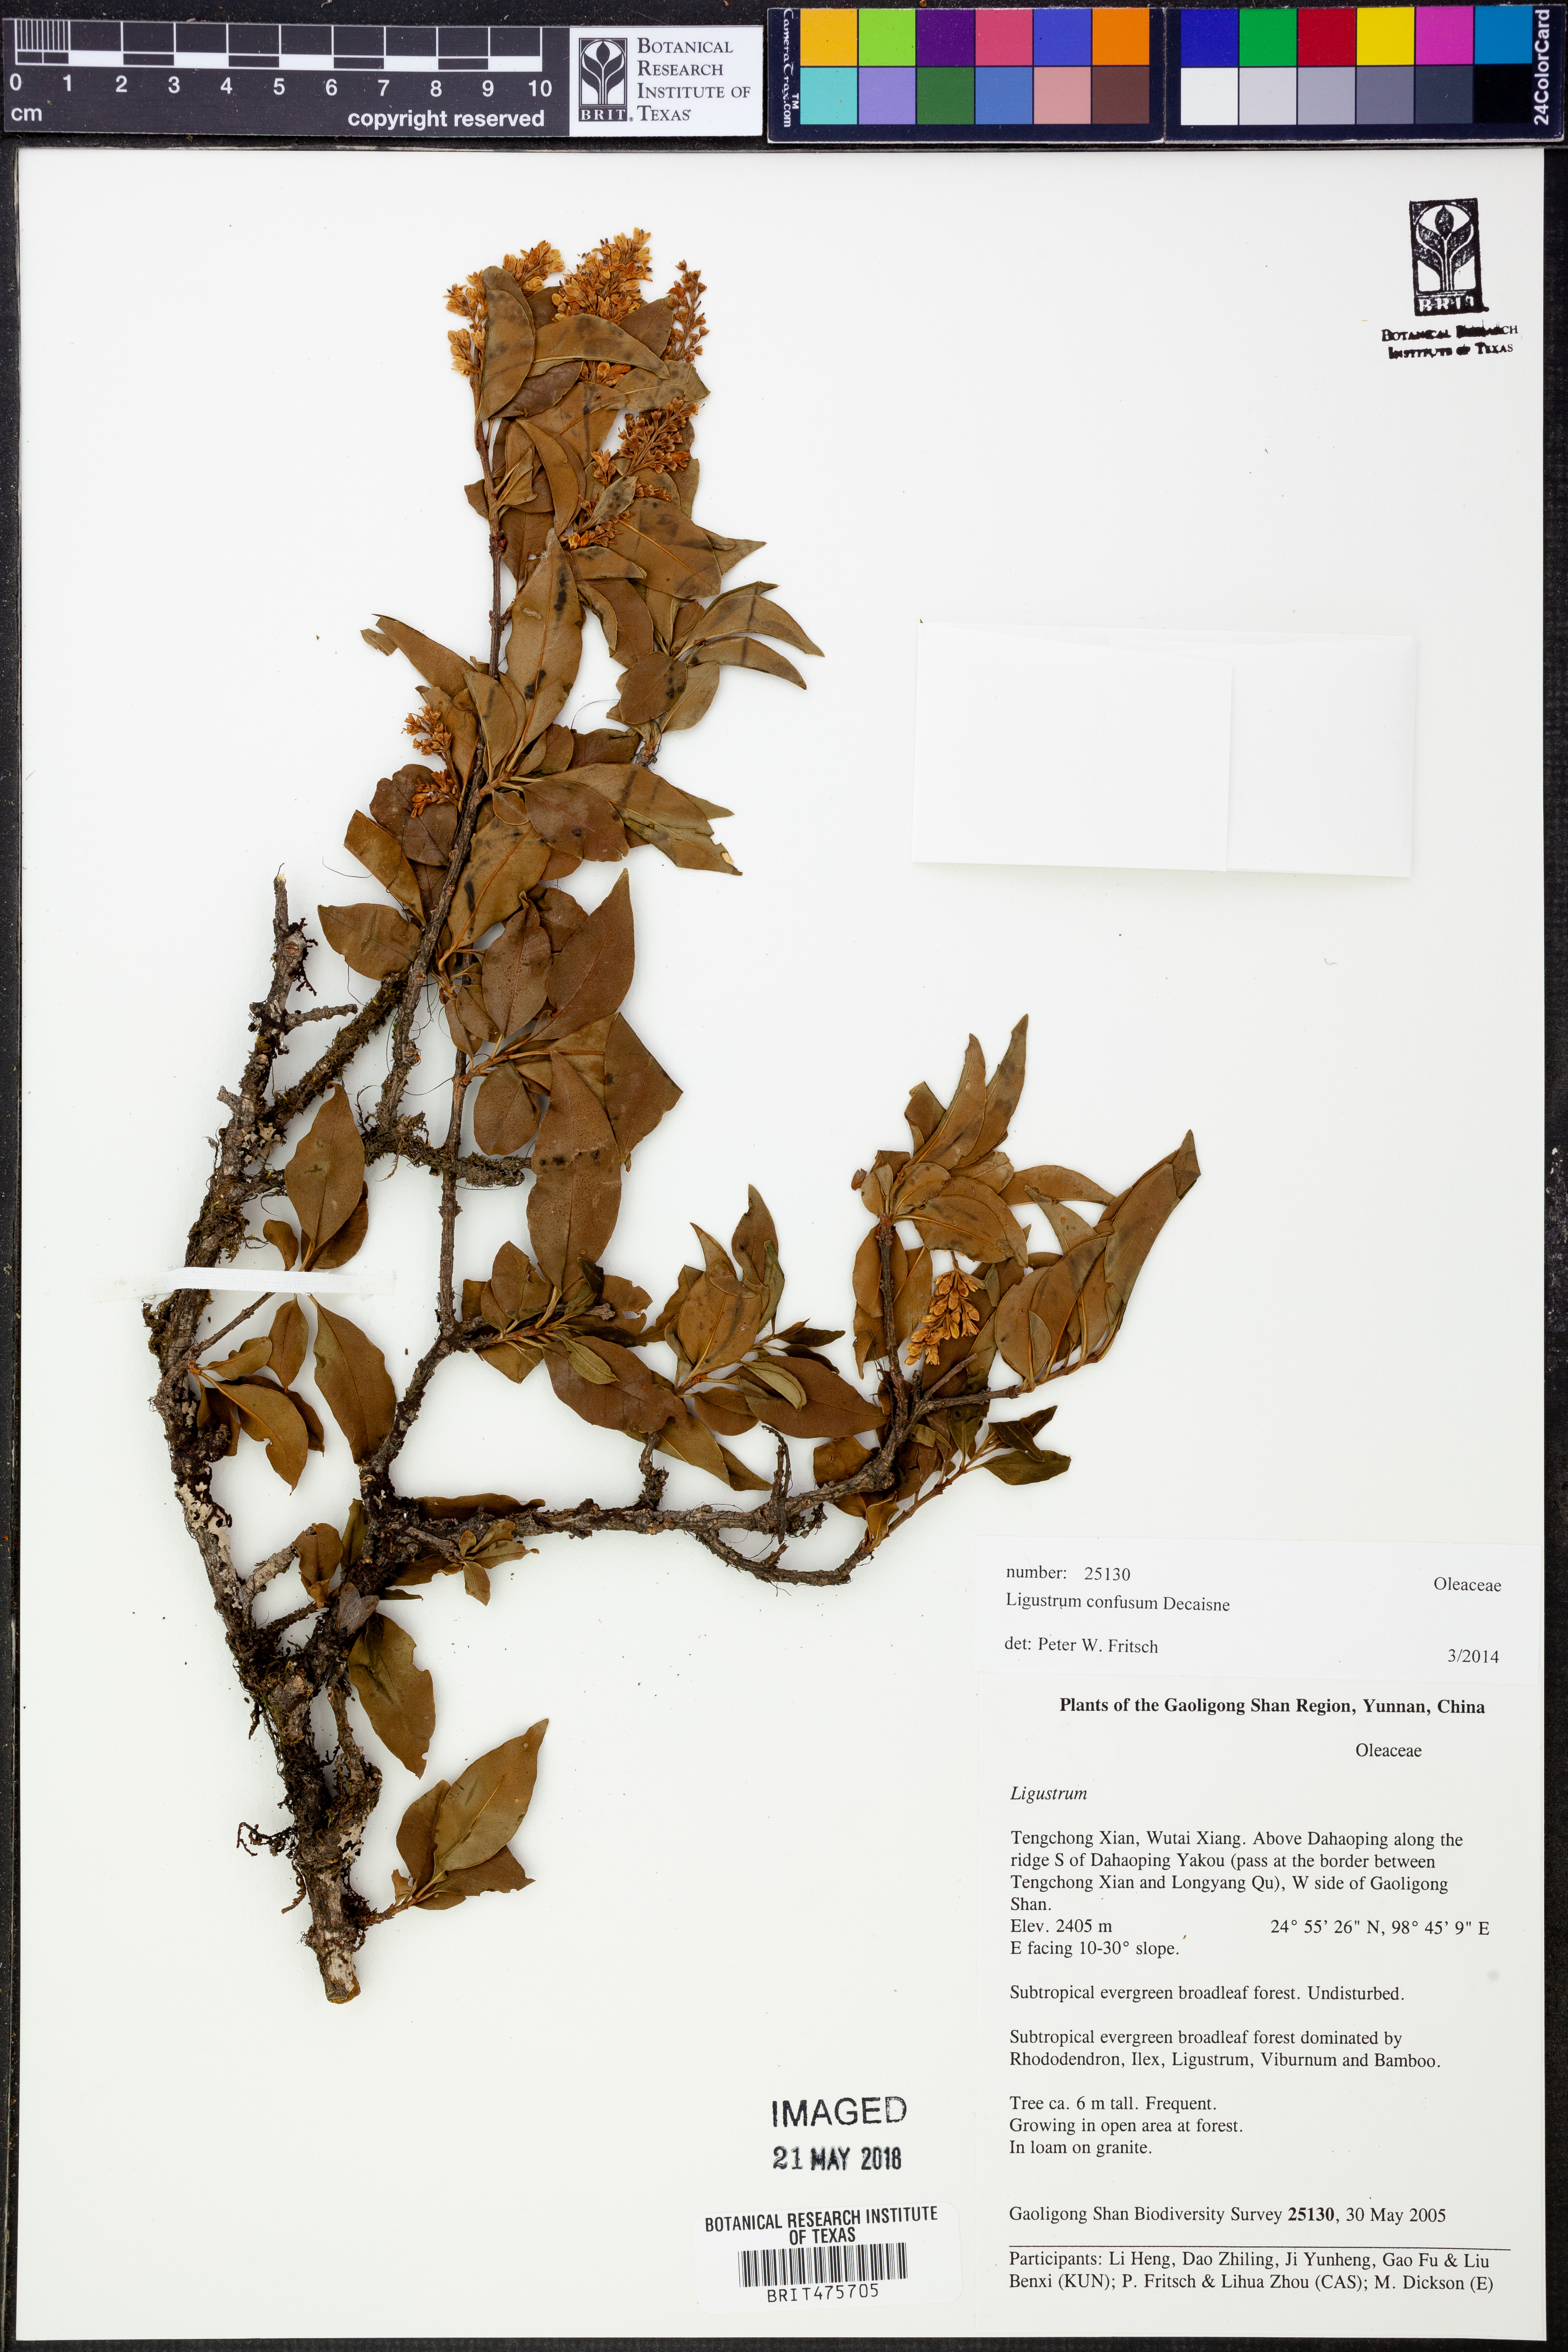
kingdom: Plantae
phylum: Tracheophyta
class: Magnoliopsida
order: Lamiales
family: Oleaceae
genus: Ligustrum
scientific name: Ligustrum confusum
